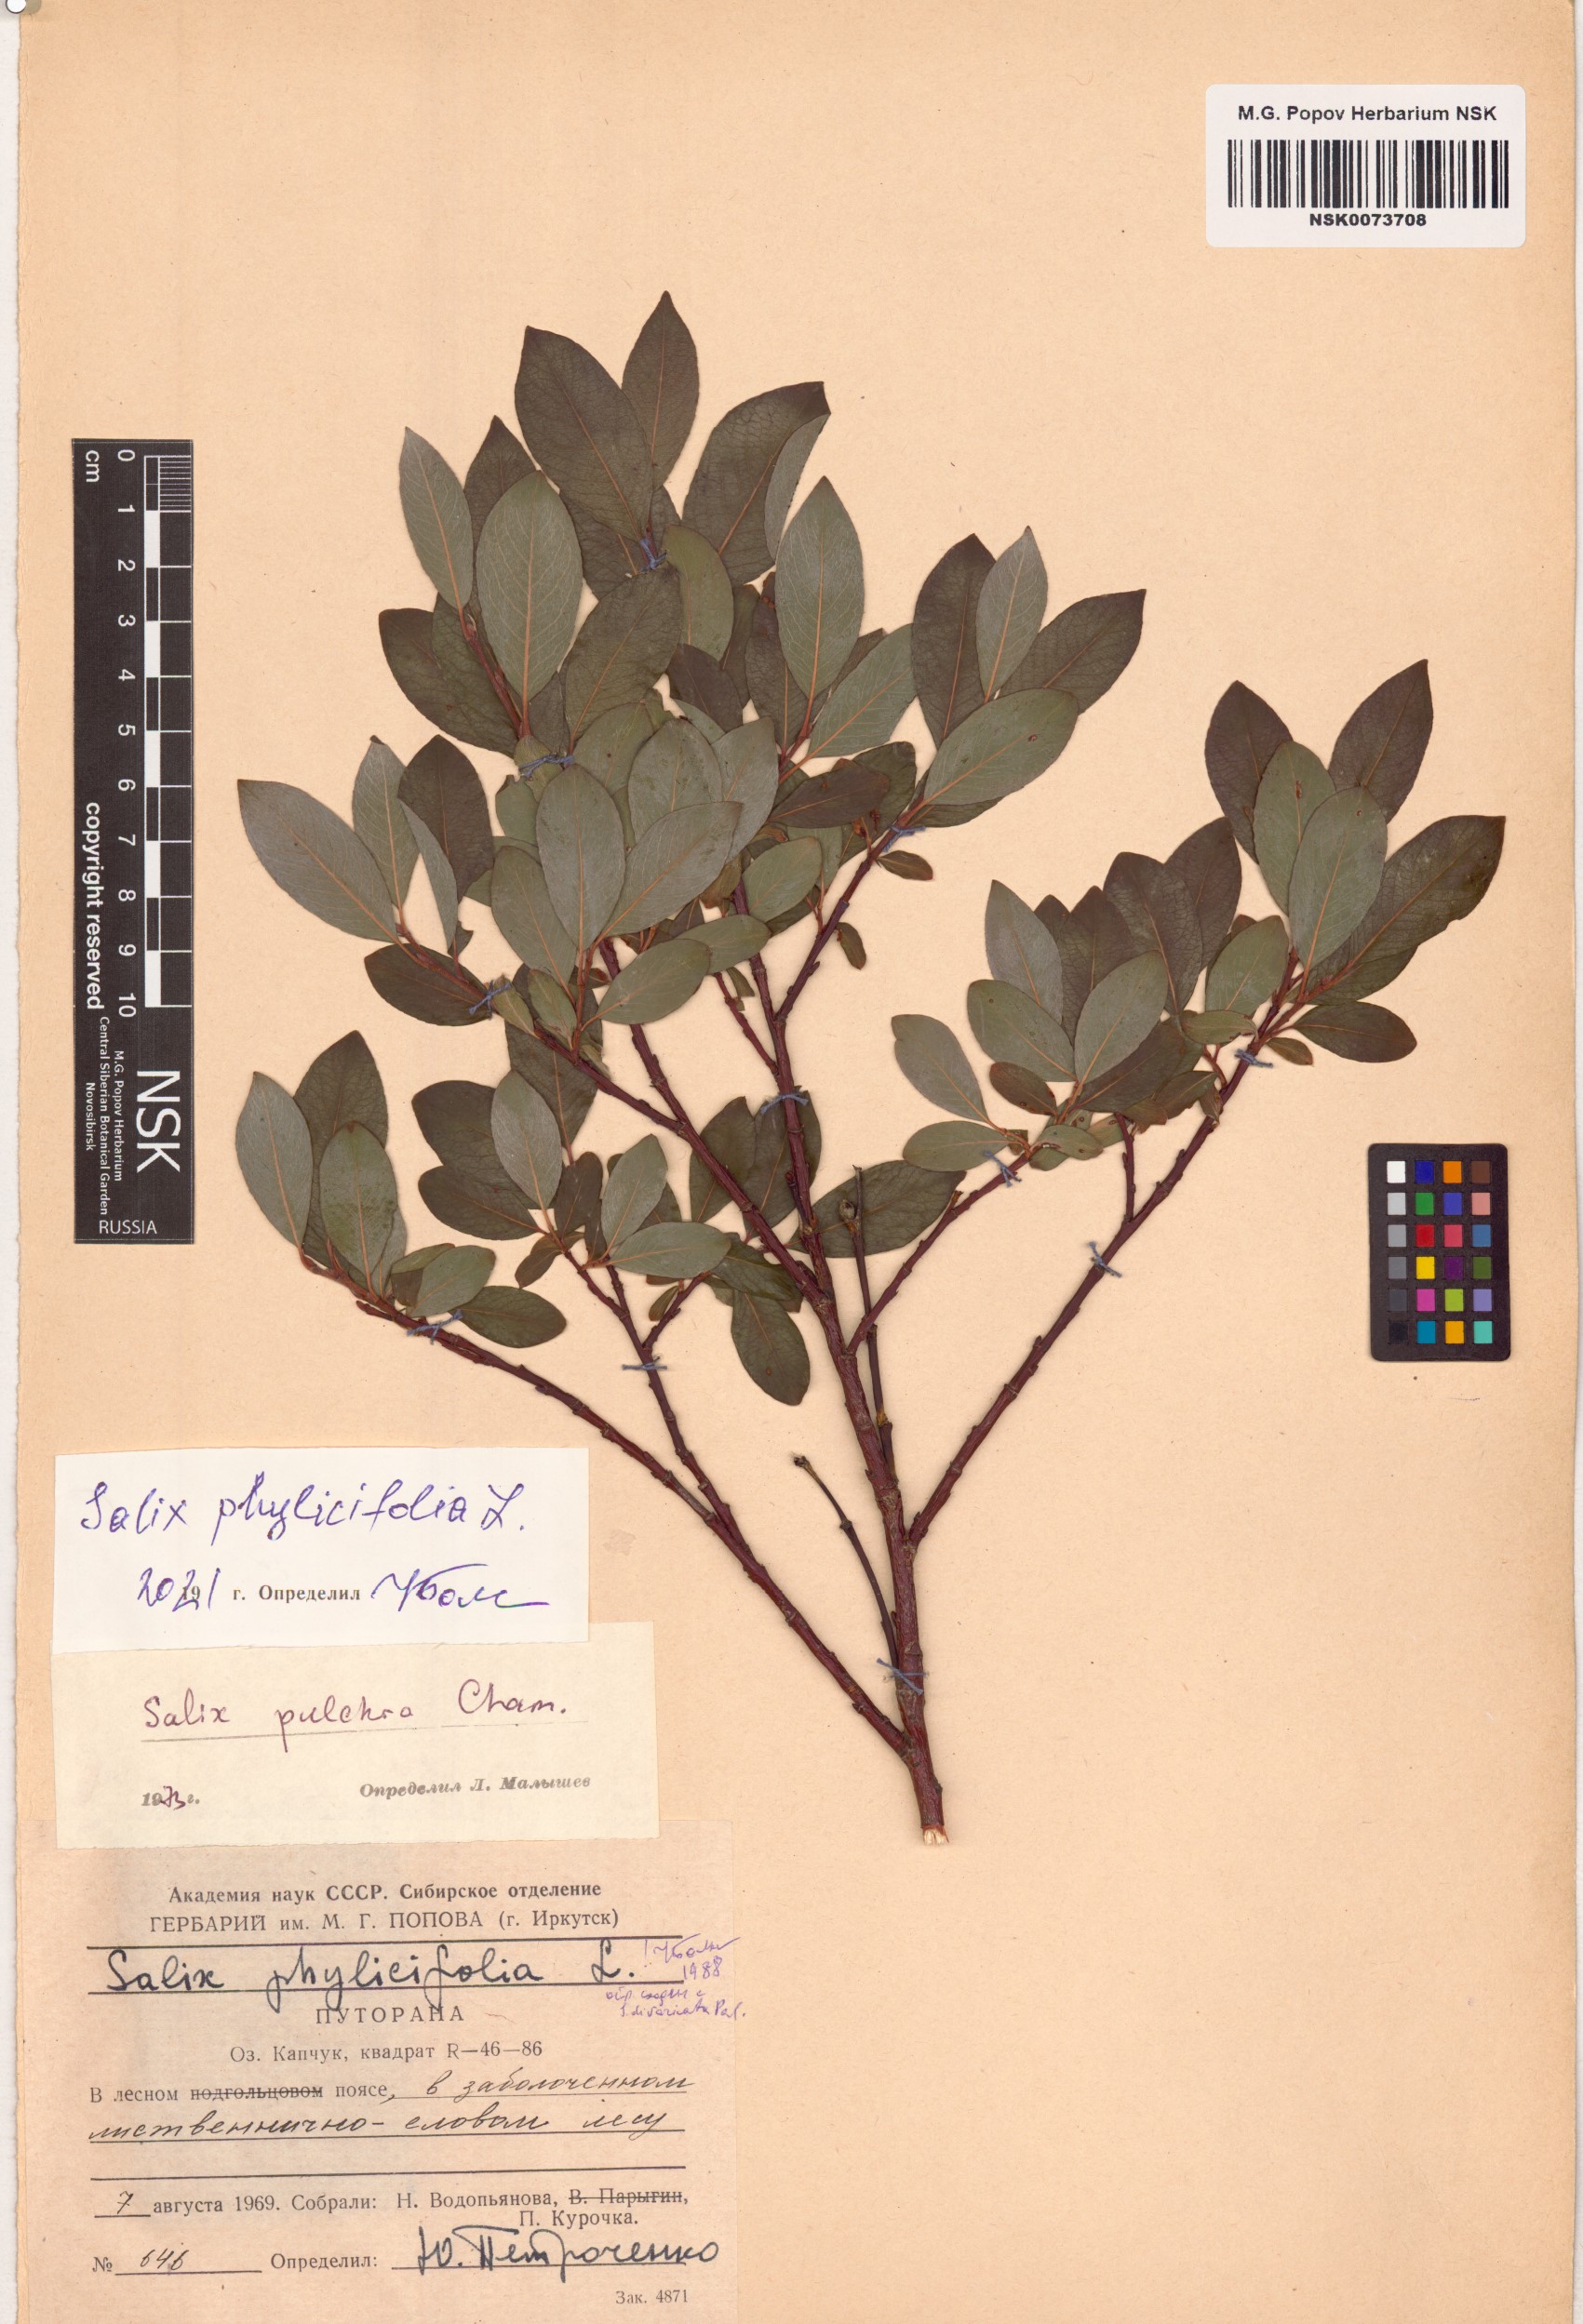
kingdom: Plantae
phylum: Tracheophyta
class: Magnoliopsida
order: Malpighiales
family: Salicaceae
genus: Salix
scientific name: Salix phylicifolia
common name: Tea-leaved willow
